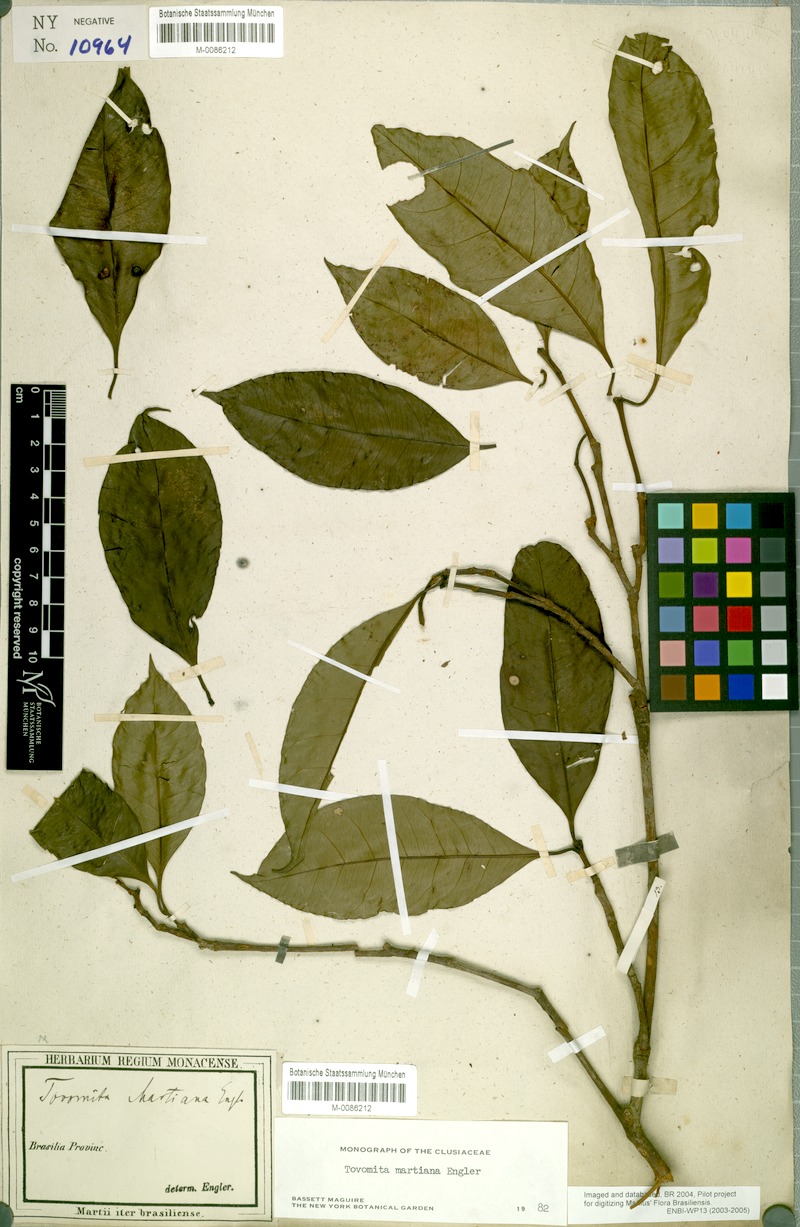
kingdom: Plantae
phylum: Tracheophyta
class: Magnoliopsida
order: Malpighiales
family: Clusiaceae
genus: Tovomita
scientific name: Tovomita martiana
